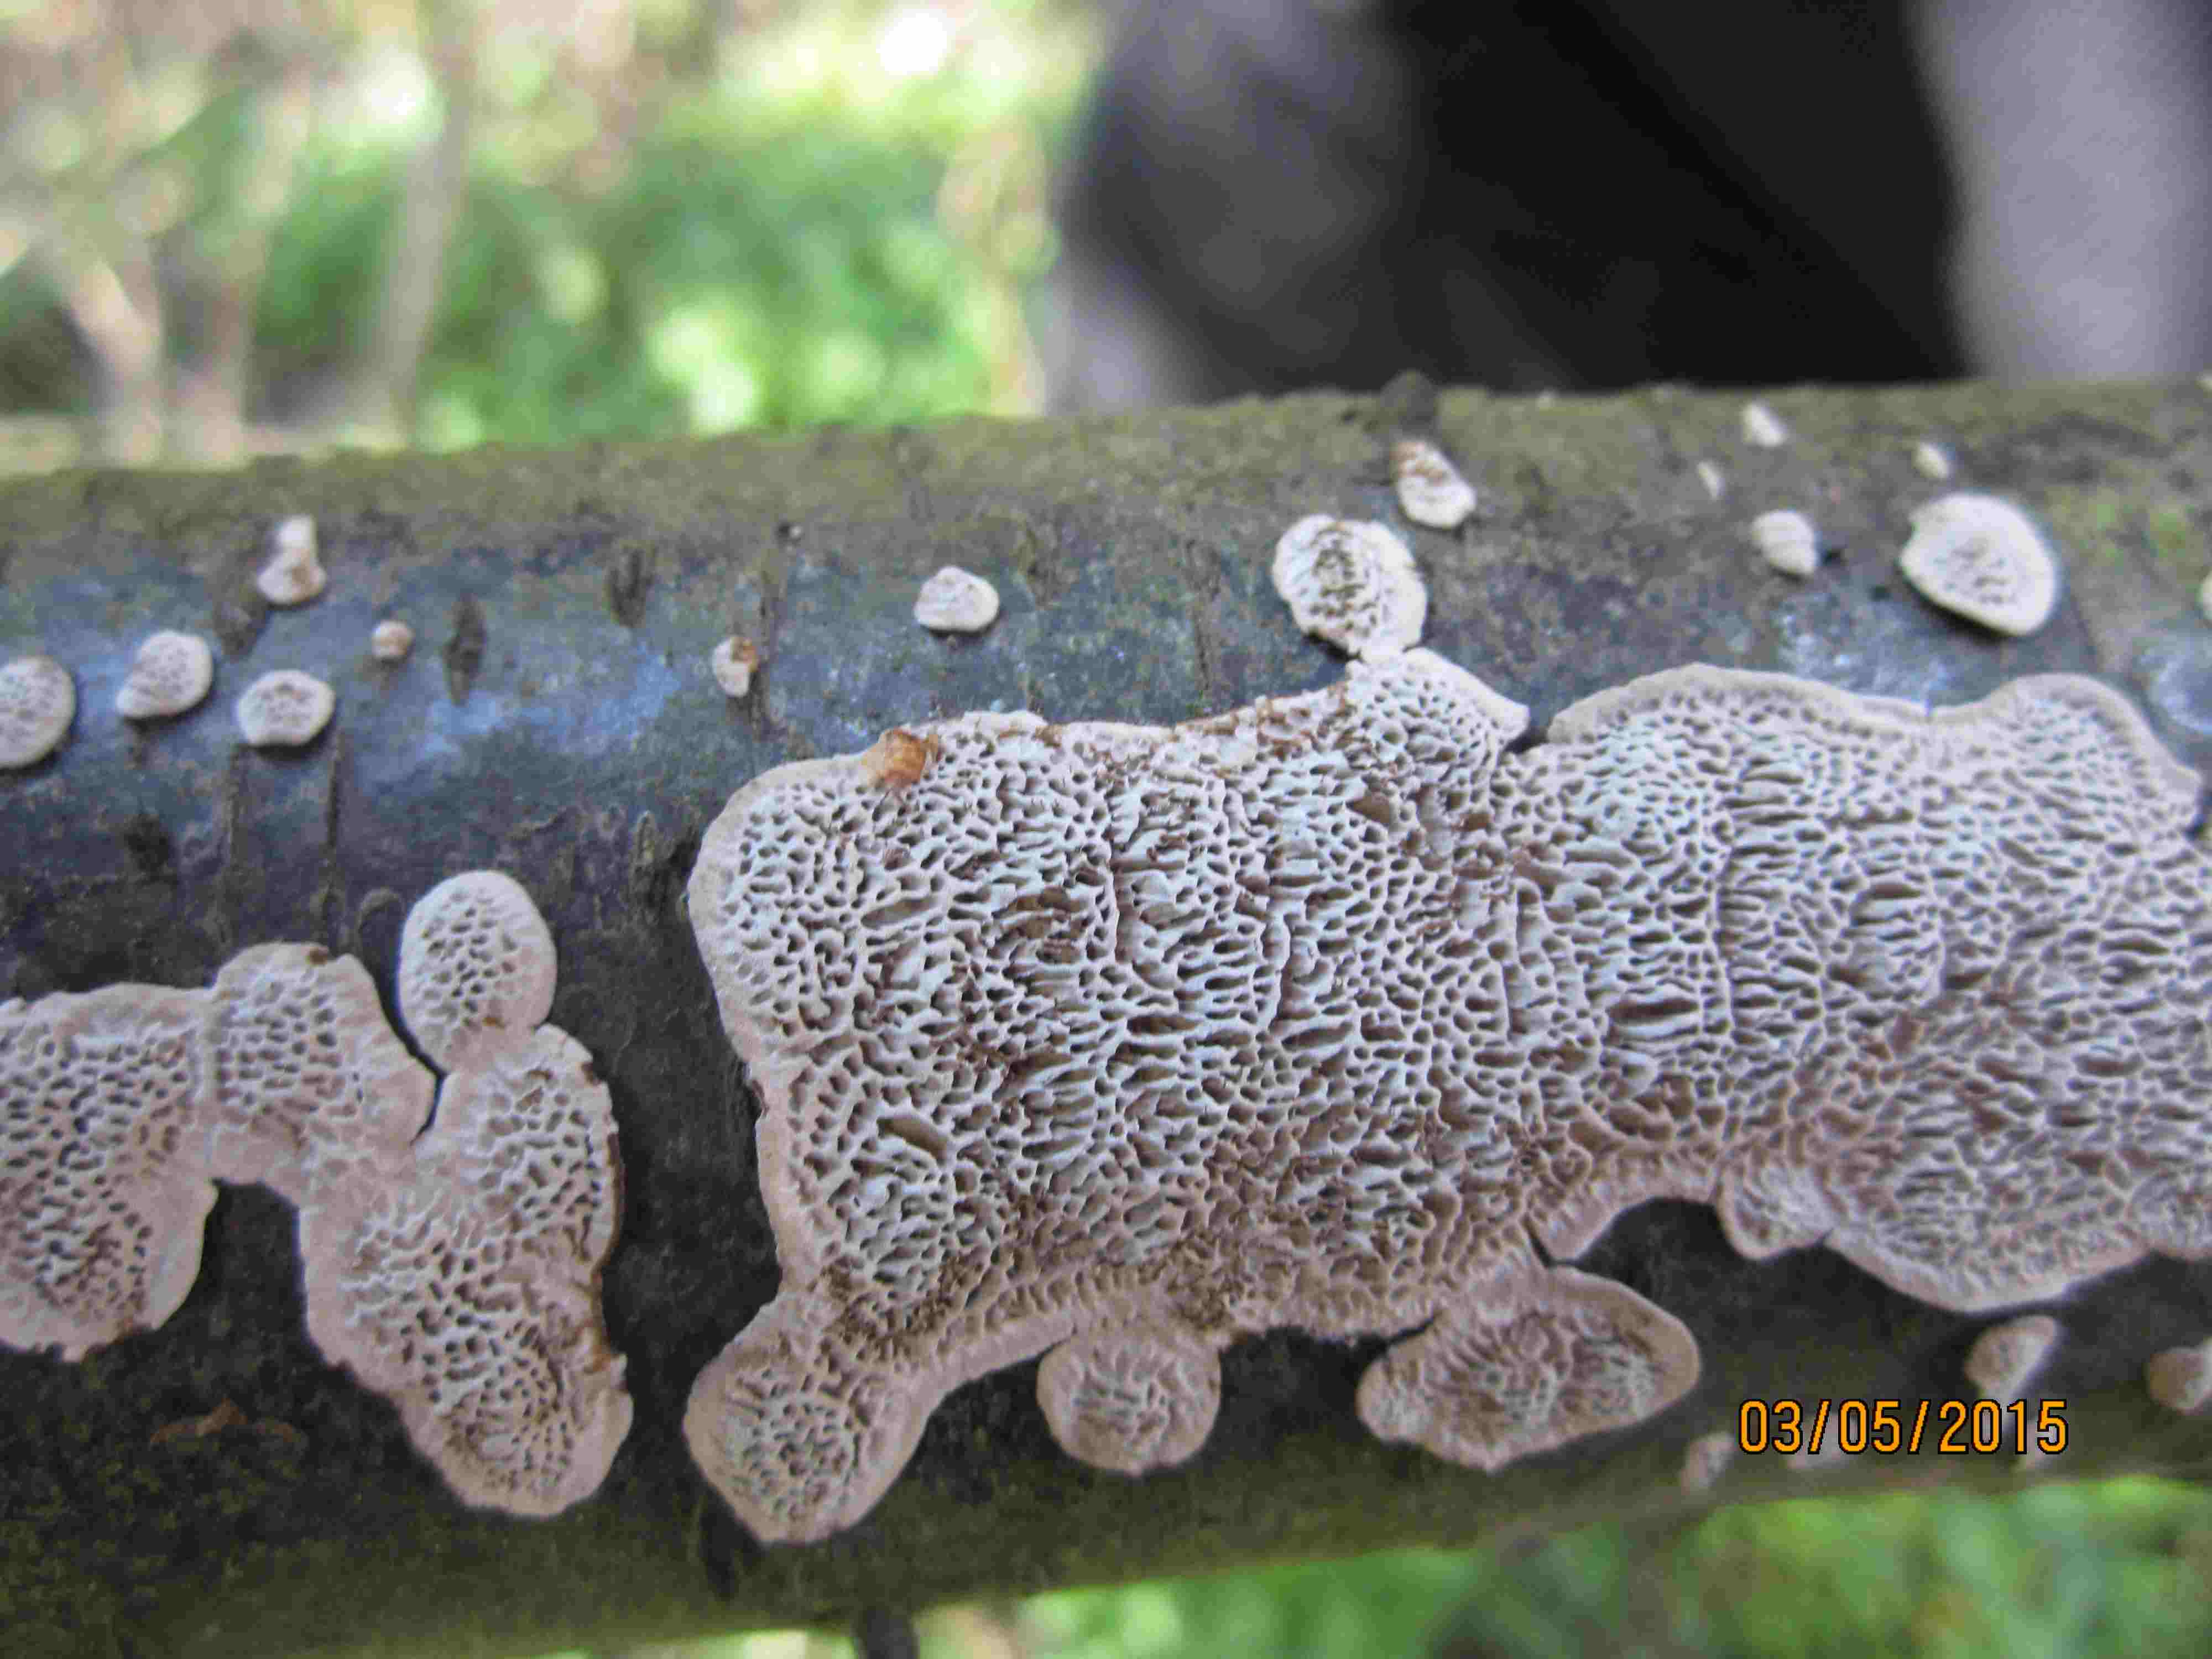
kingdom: Fungi
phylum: Basidiomycota
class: Agaricomycetes
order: Polyporales
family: Polyporaceae
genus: Podofomes
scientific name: Podofomes mollis
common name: blød begporesvamp
